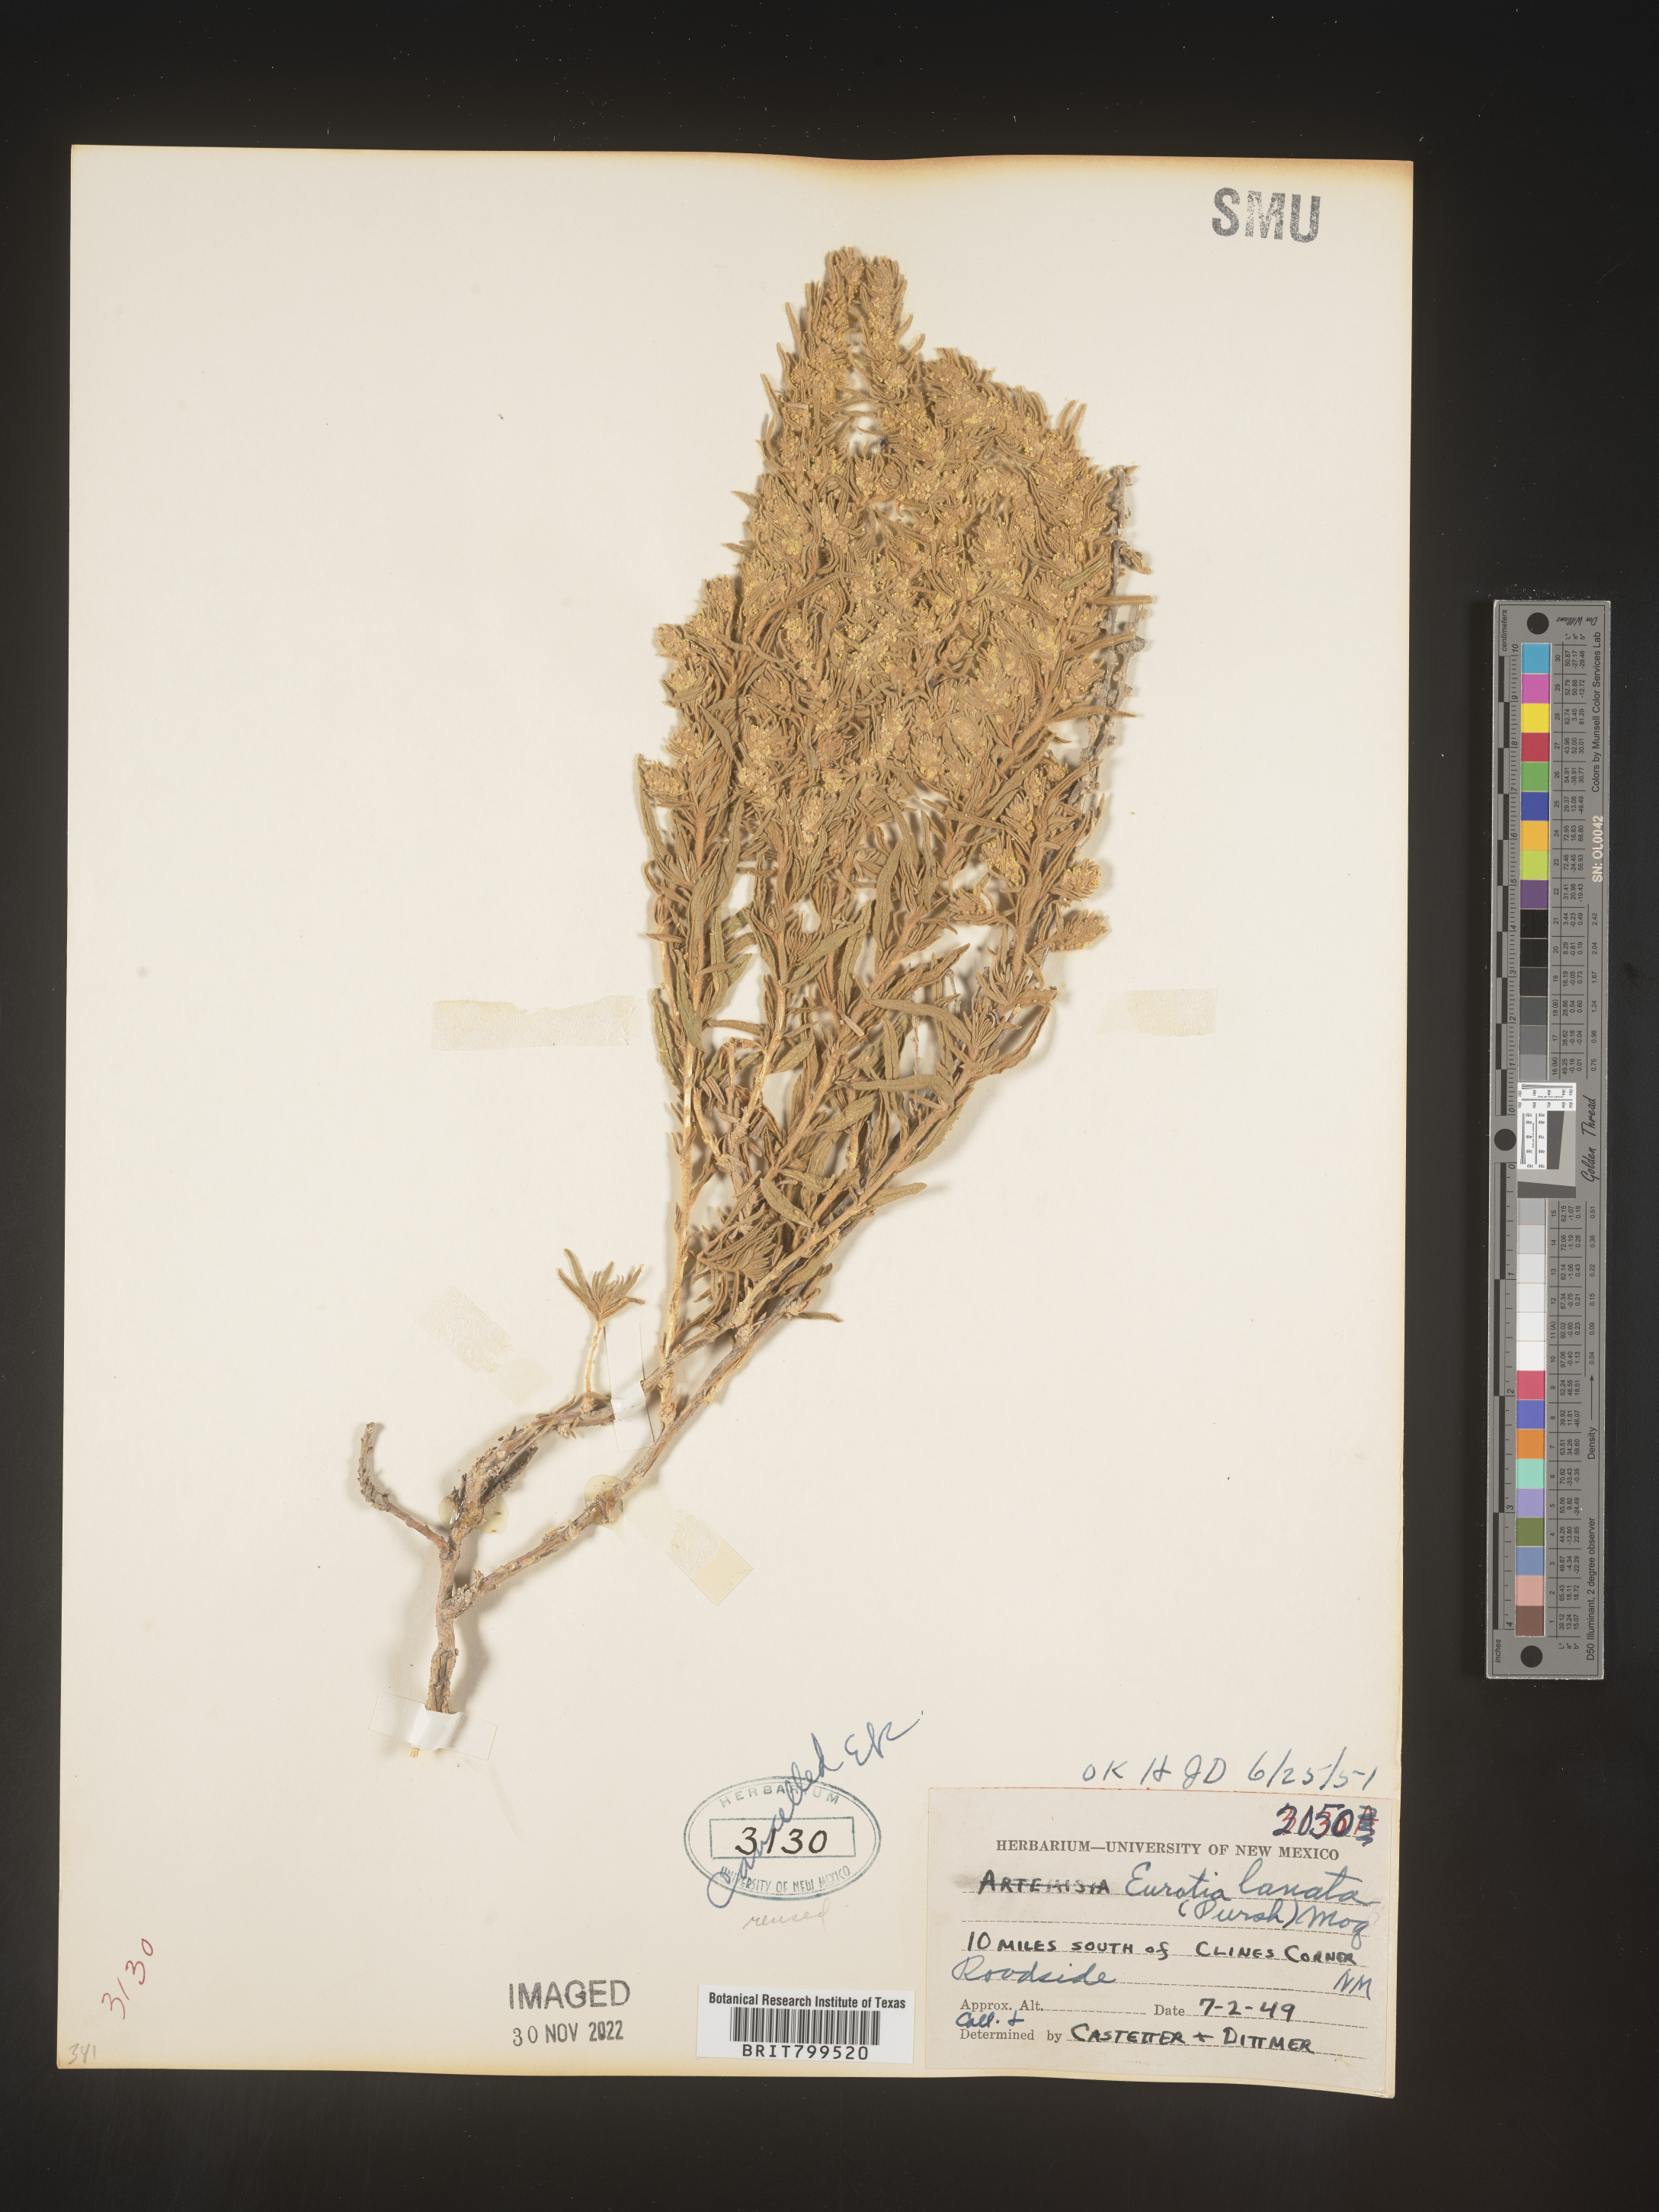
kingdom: Plantae
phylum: Tracheophyta
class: Magnoliopsida
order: Caryophyllales
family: Amaranthaceae
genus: Krascheninnikovia
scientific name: Krascheninnikovia
